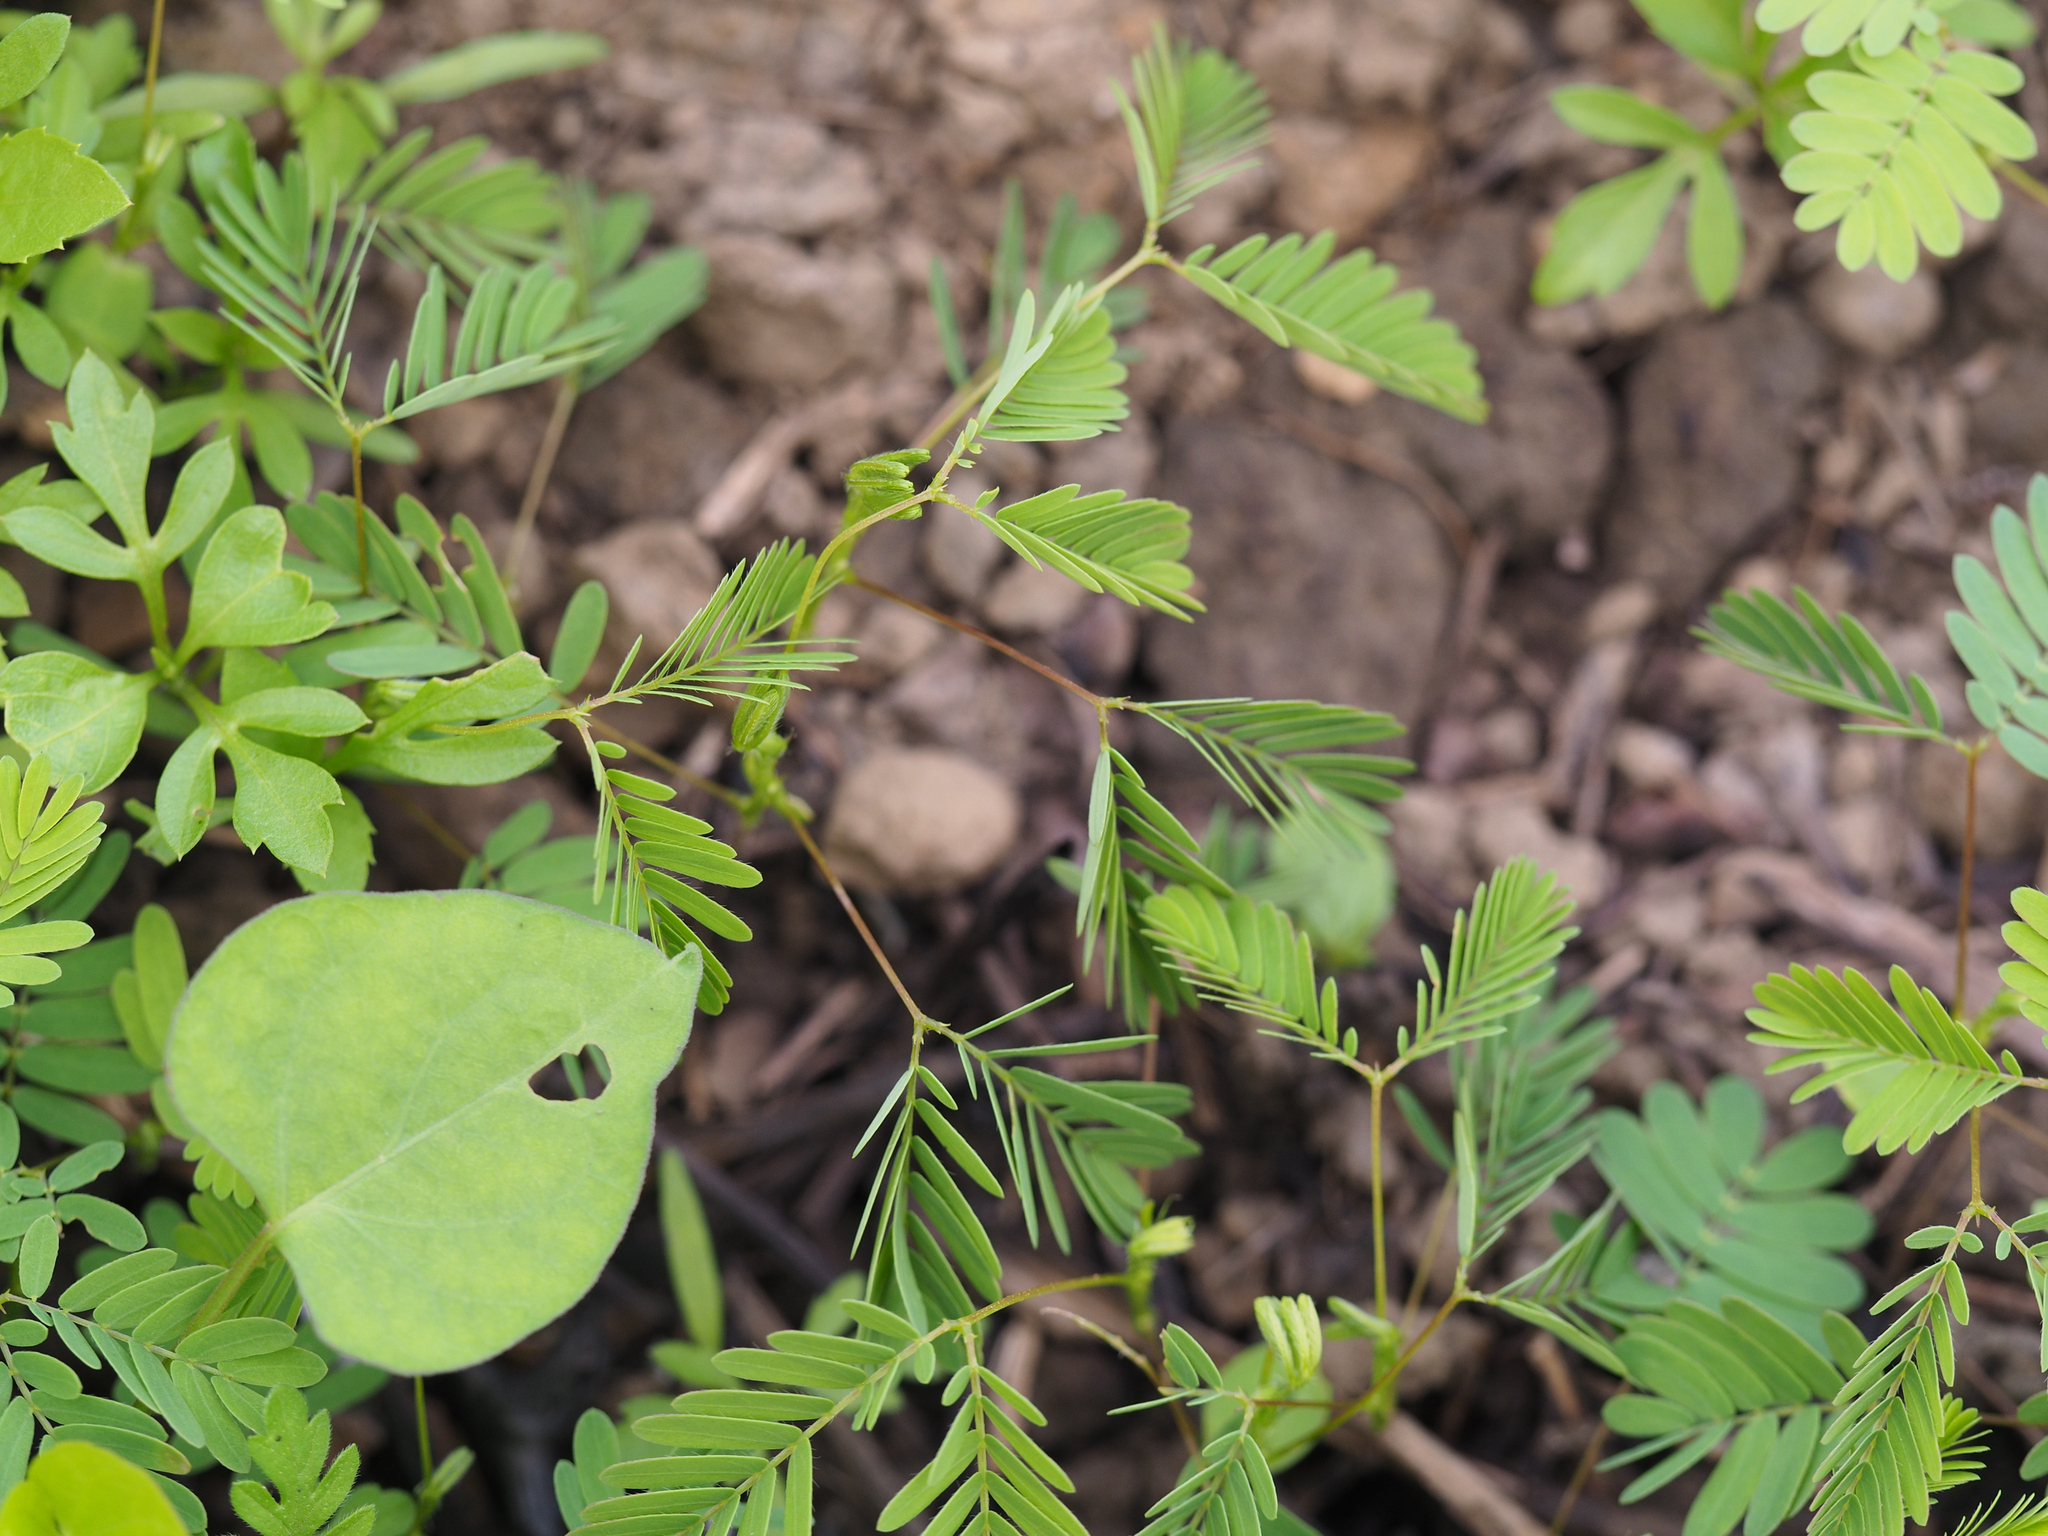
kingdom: Plantae
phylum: Tracheophyta
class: Magnoliopsida
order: Fabales
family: Fabaceae
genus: Mimosa
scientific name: Mimosa pudica
